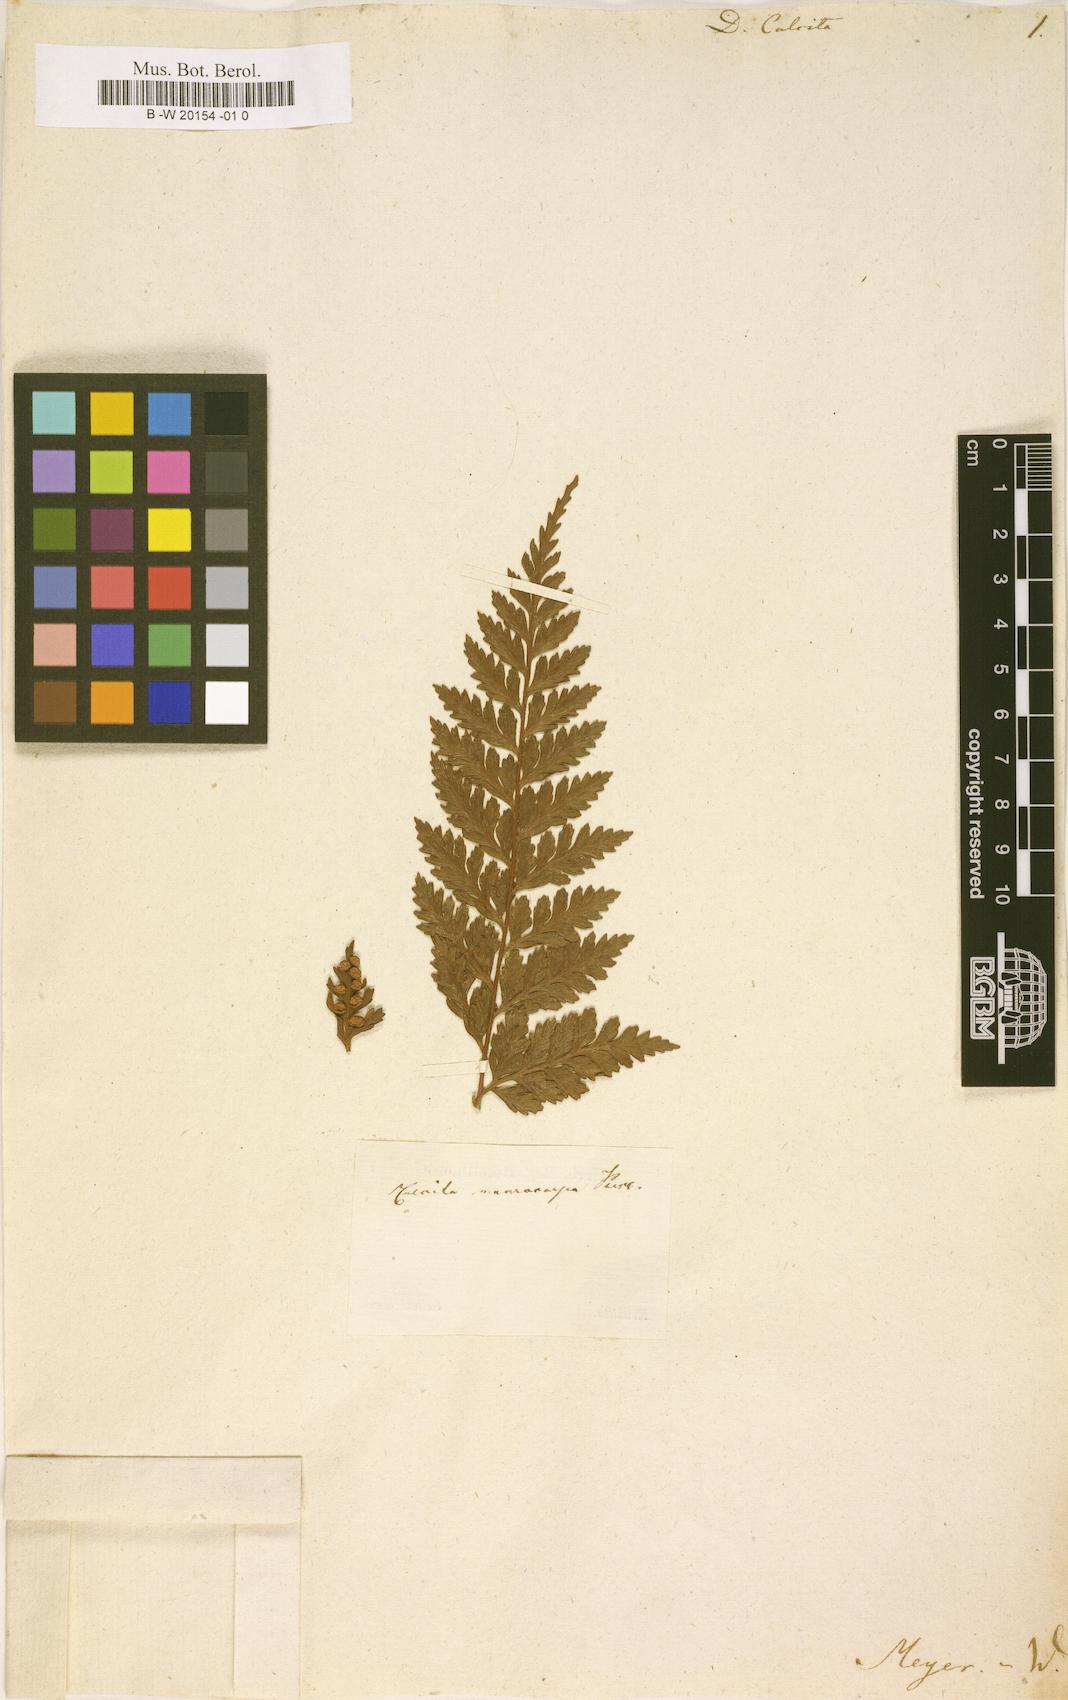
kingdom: Plantae
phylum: Tracheophyta
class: Polypodiopsida
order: Polypodiales
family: Pteridaceae
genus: Pteris
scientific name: Pteris pallens
